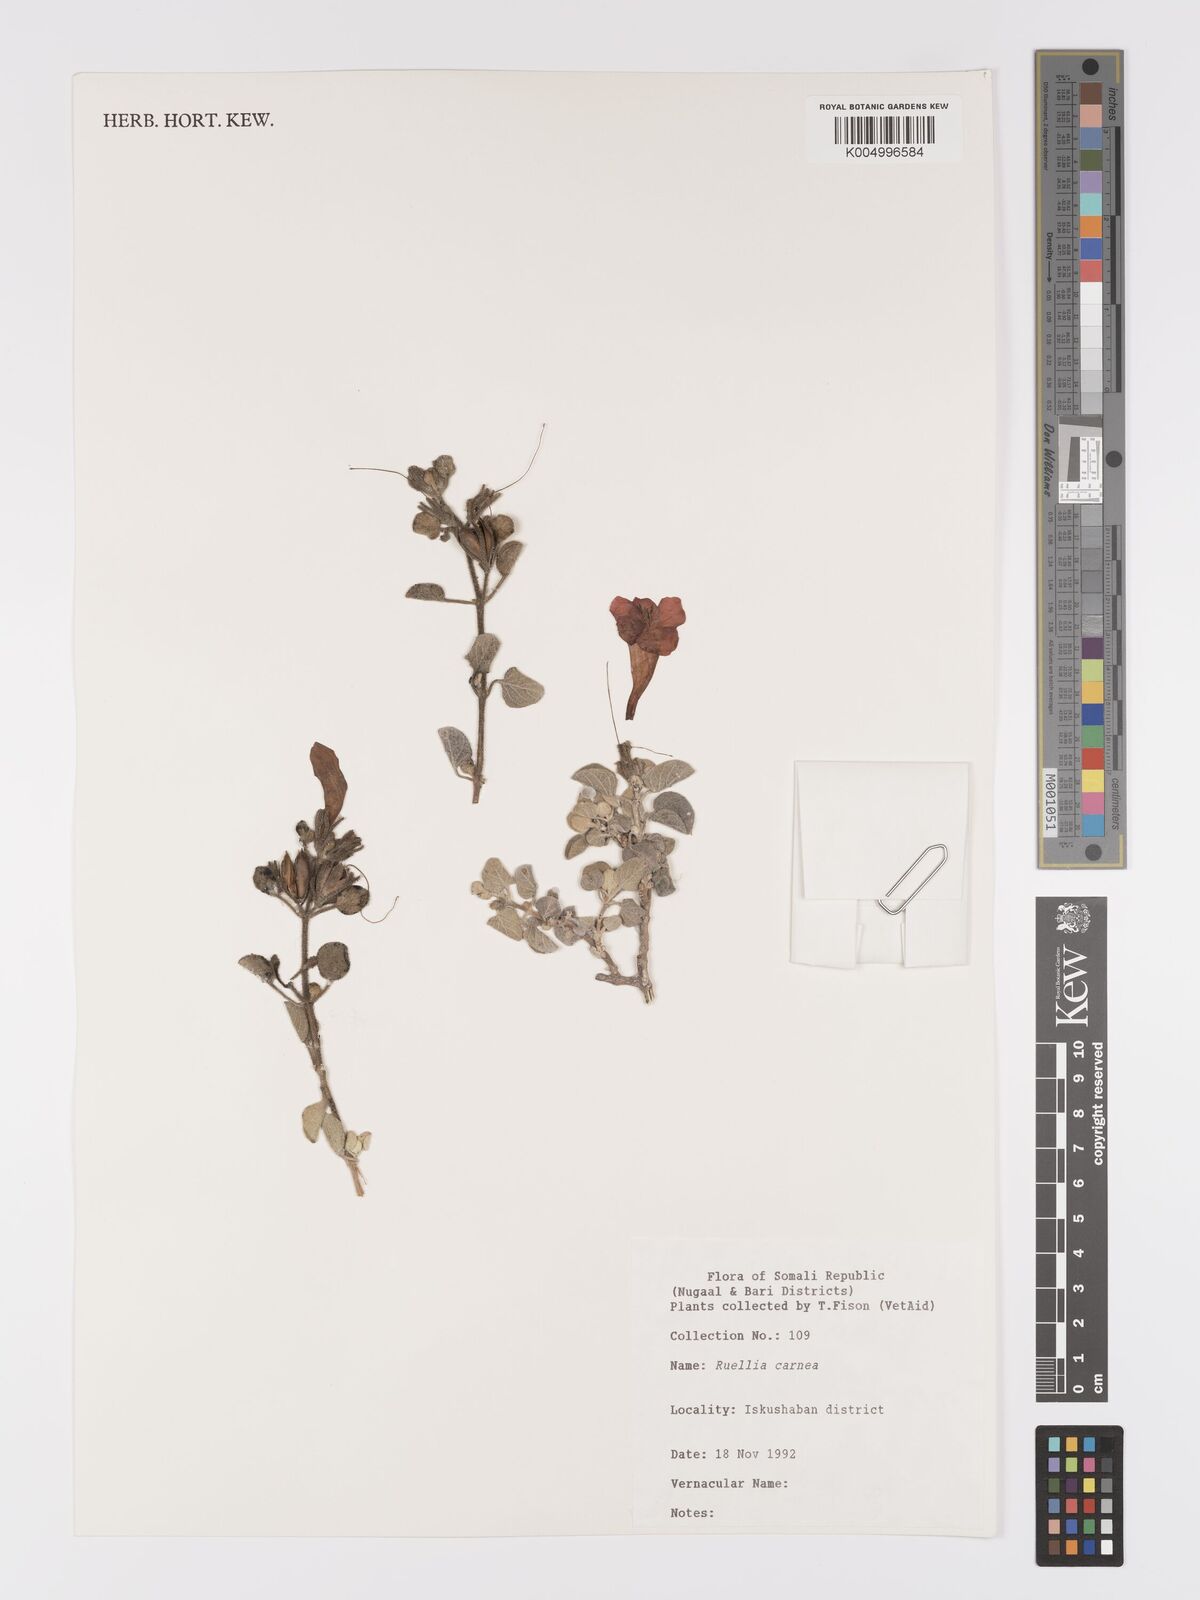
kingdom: Plantae
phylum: Tracheophyta
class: Magnoliopsida
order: Lamiales
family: Acanthaceae
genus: Ruellia
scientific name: Ruellia carnea
